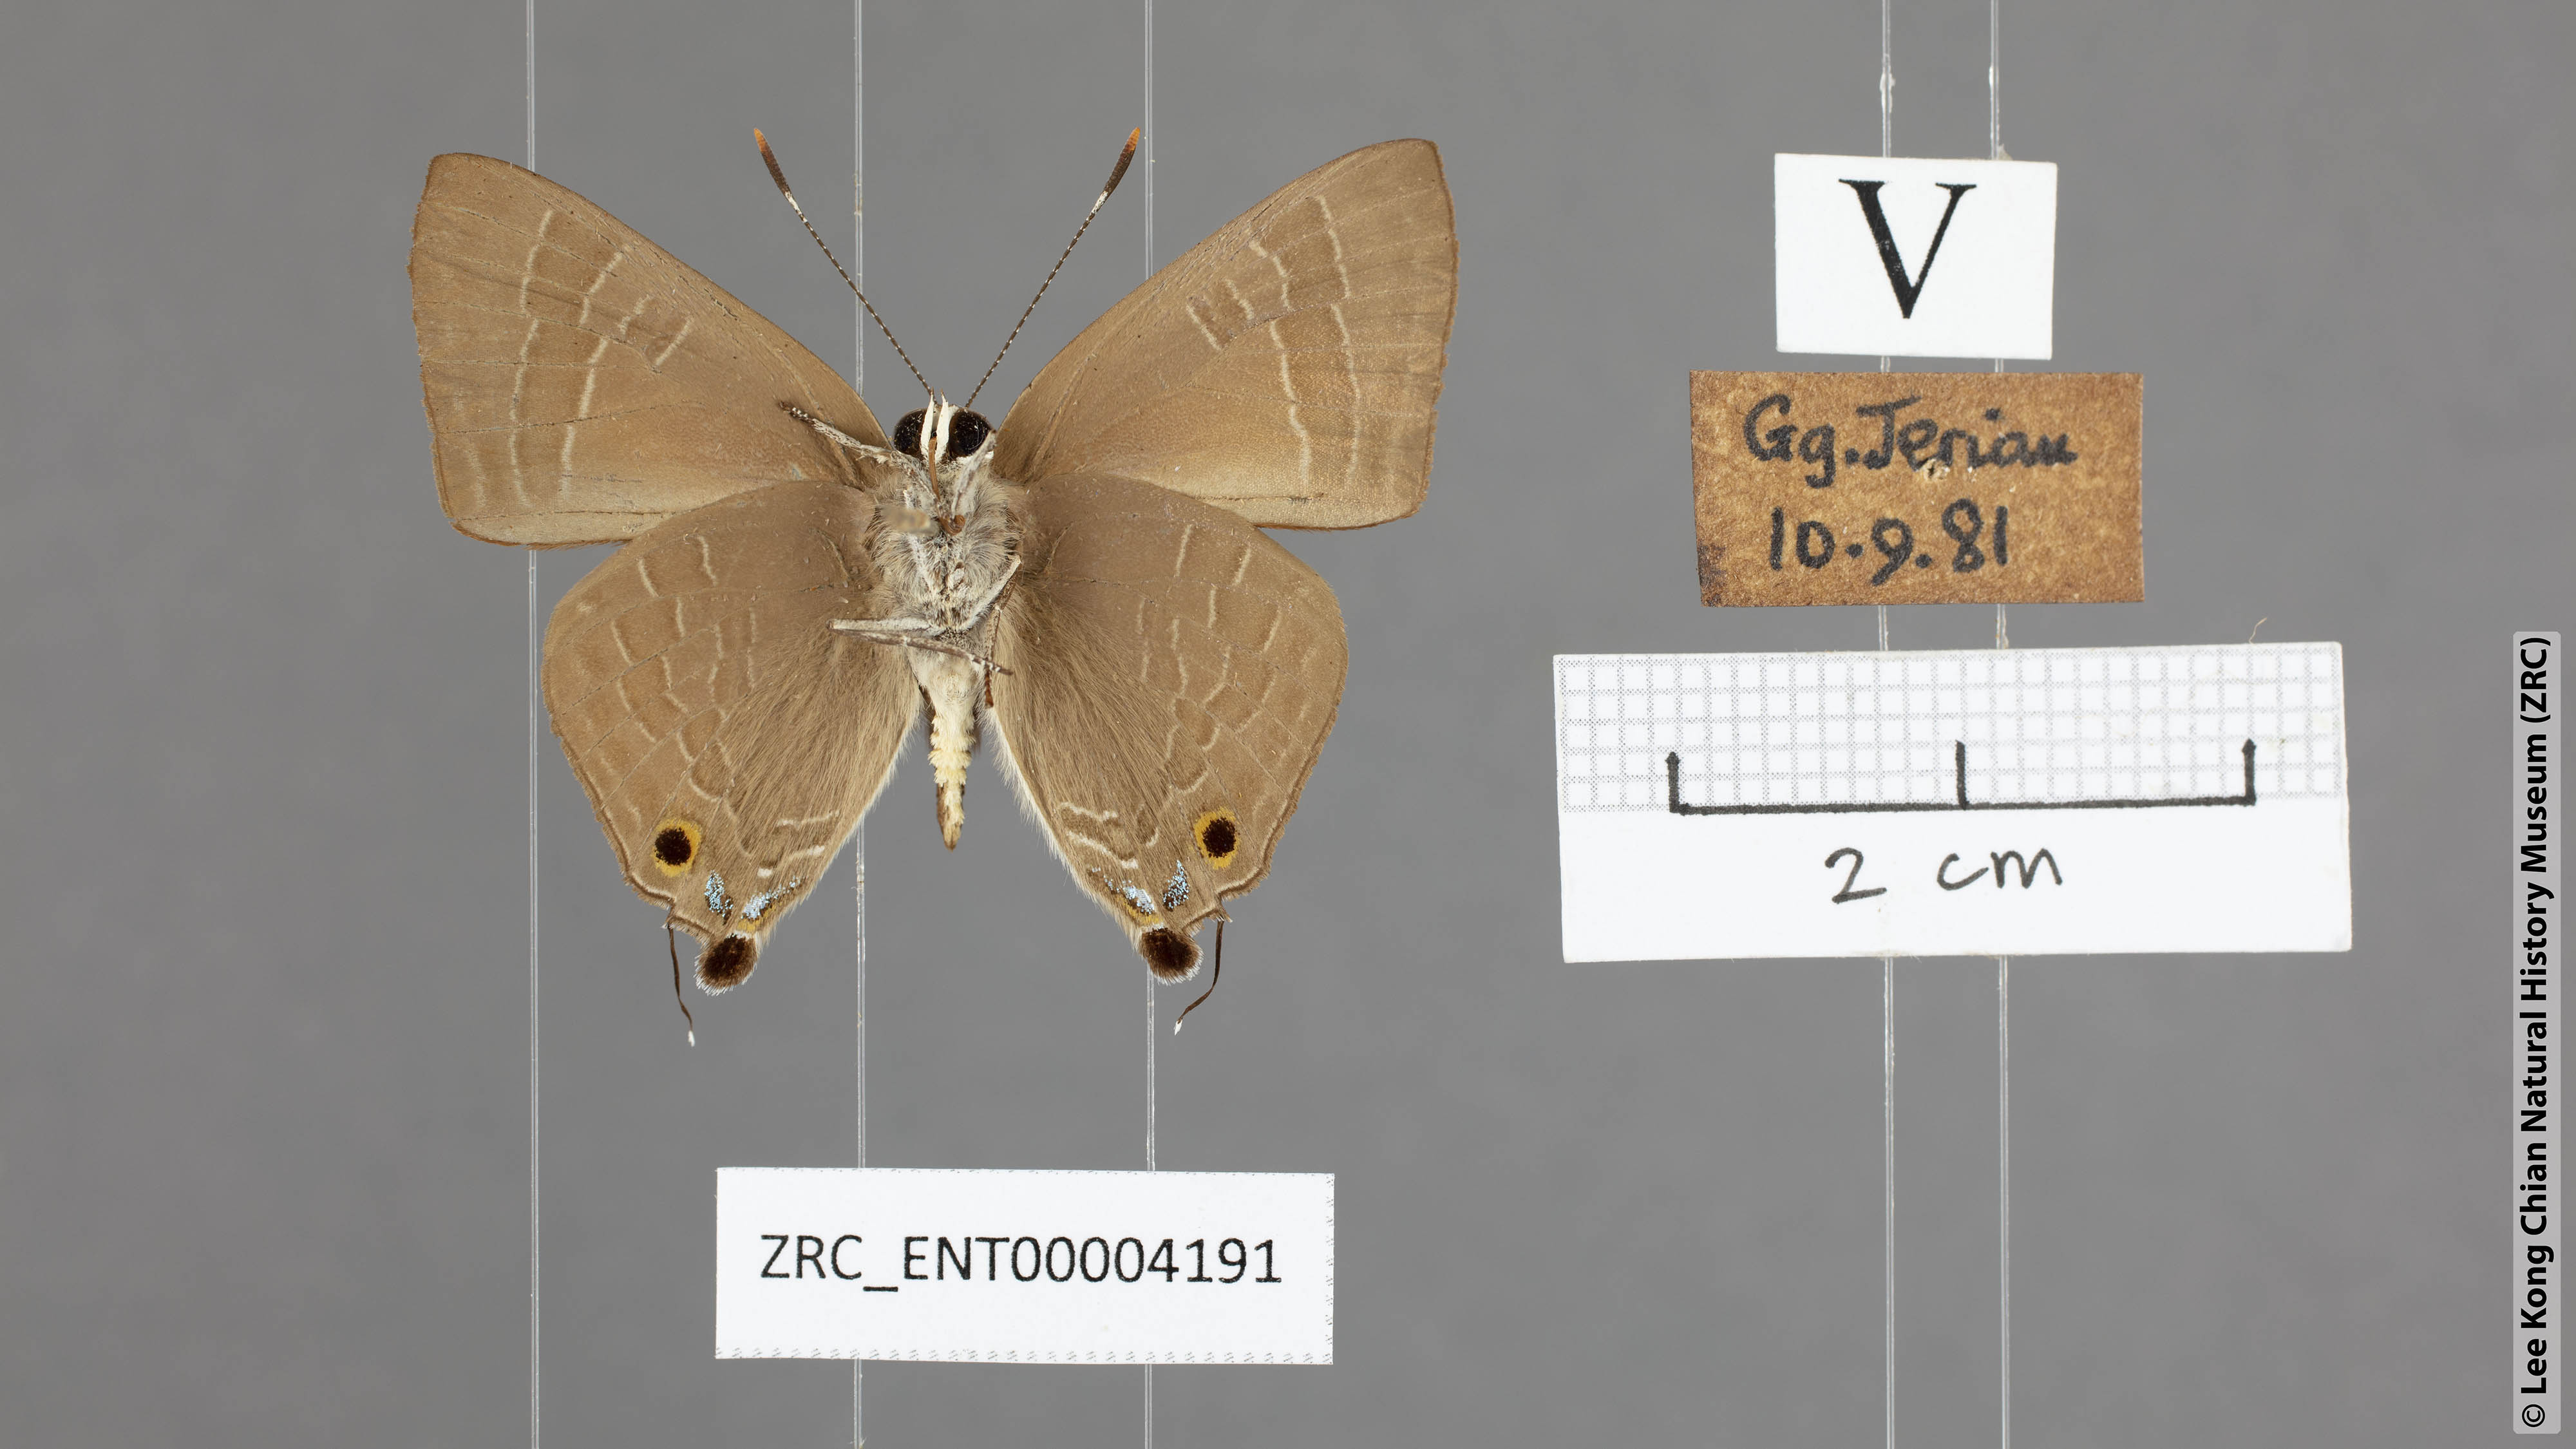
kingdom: Animalia
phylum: Arthropoda
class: Insecta
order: Lepidoptera
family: Lycaenidae
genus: Deudorix
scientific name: Deudorix epijarbas
